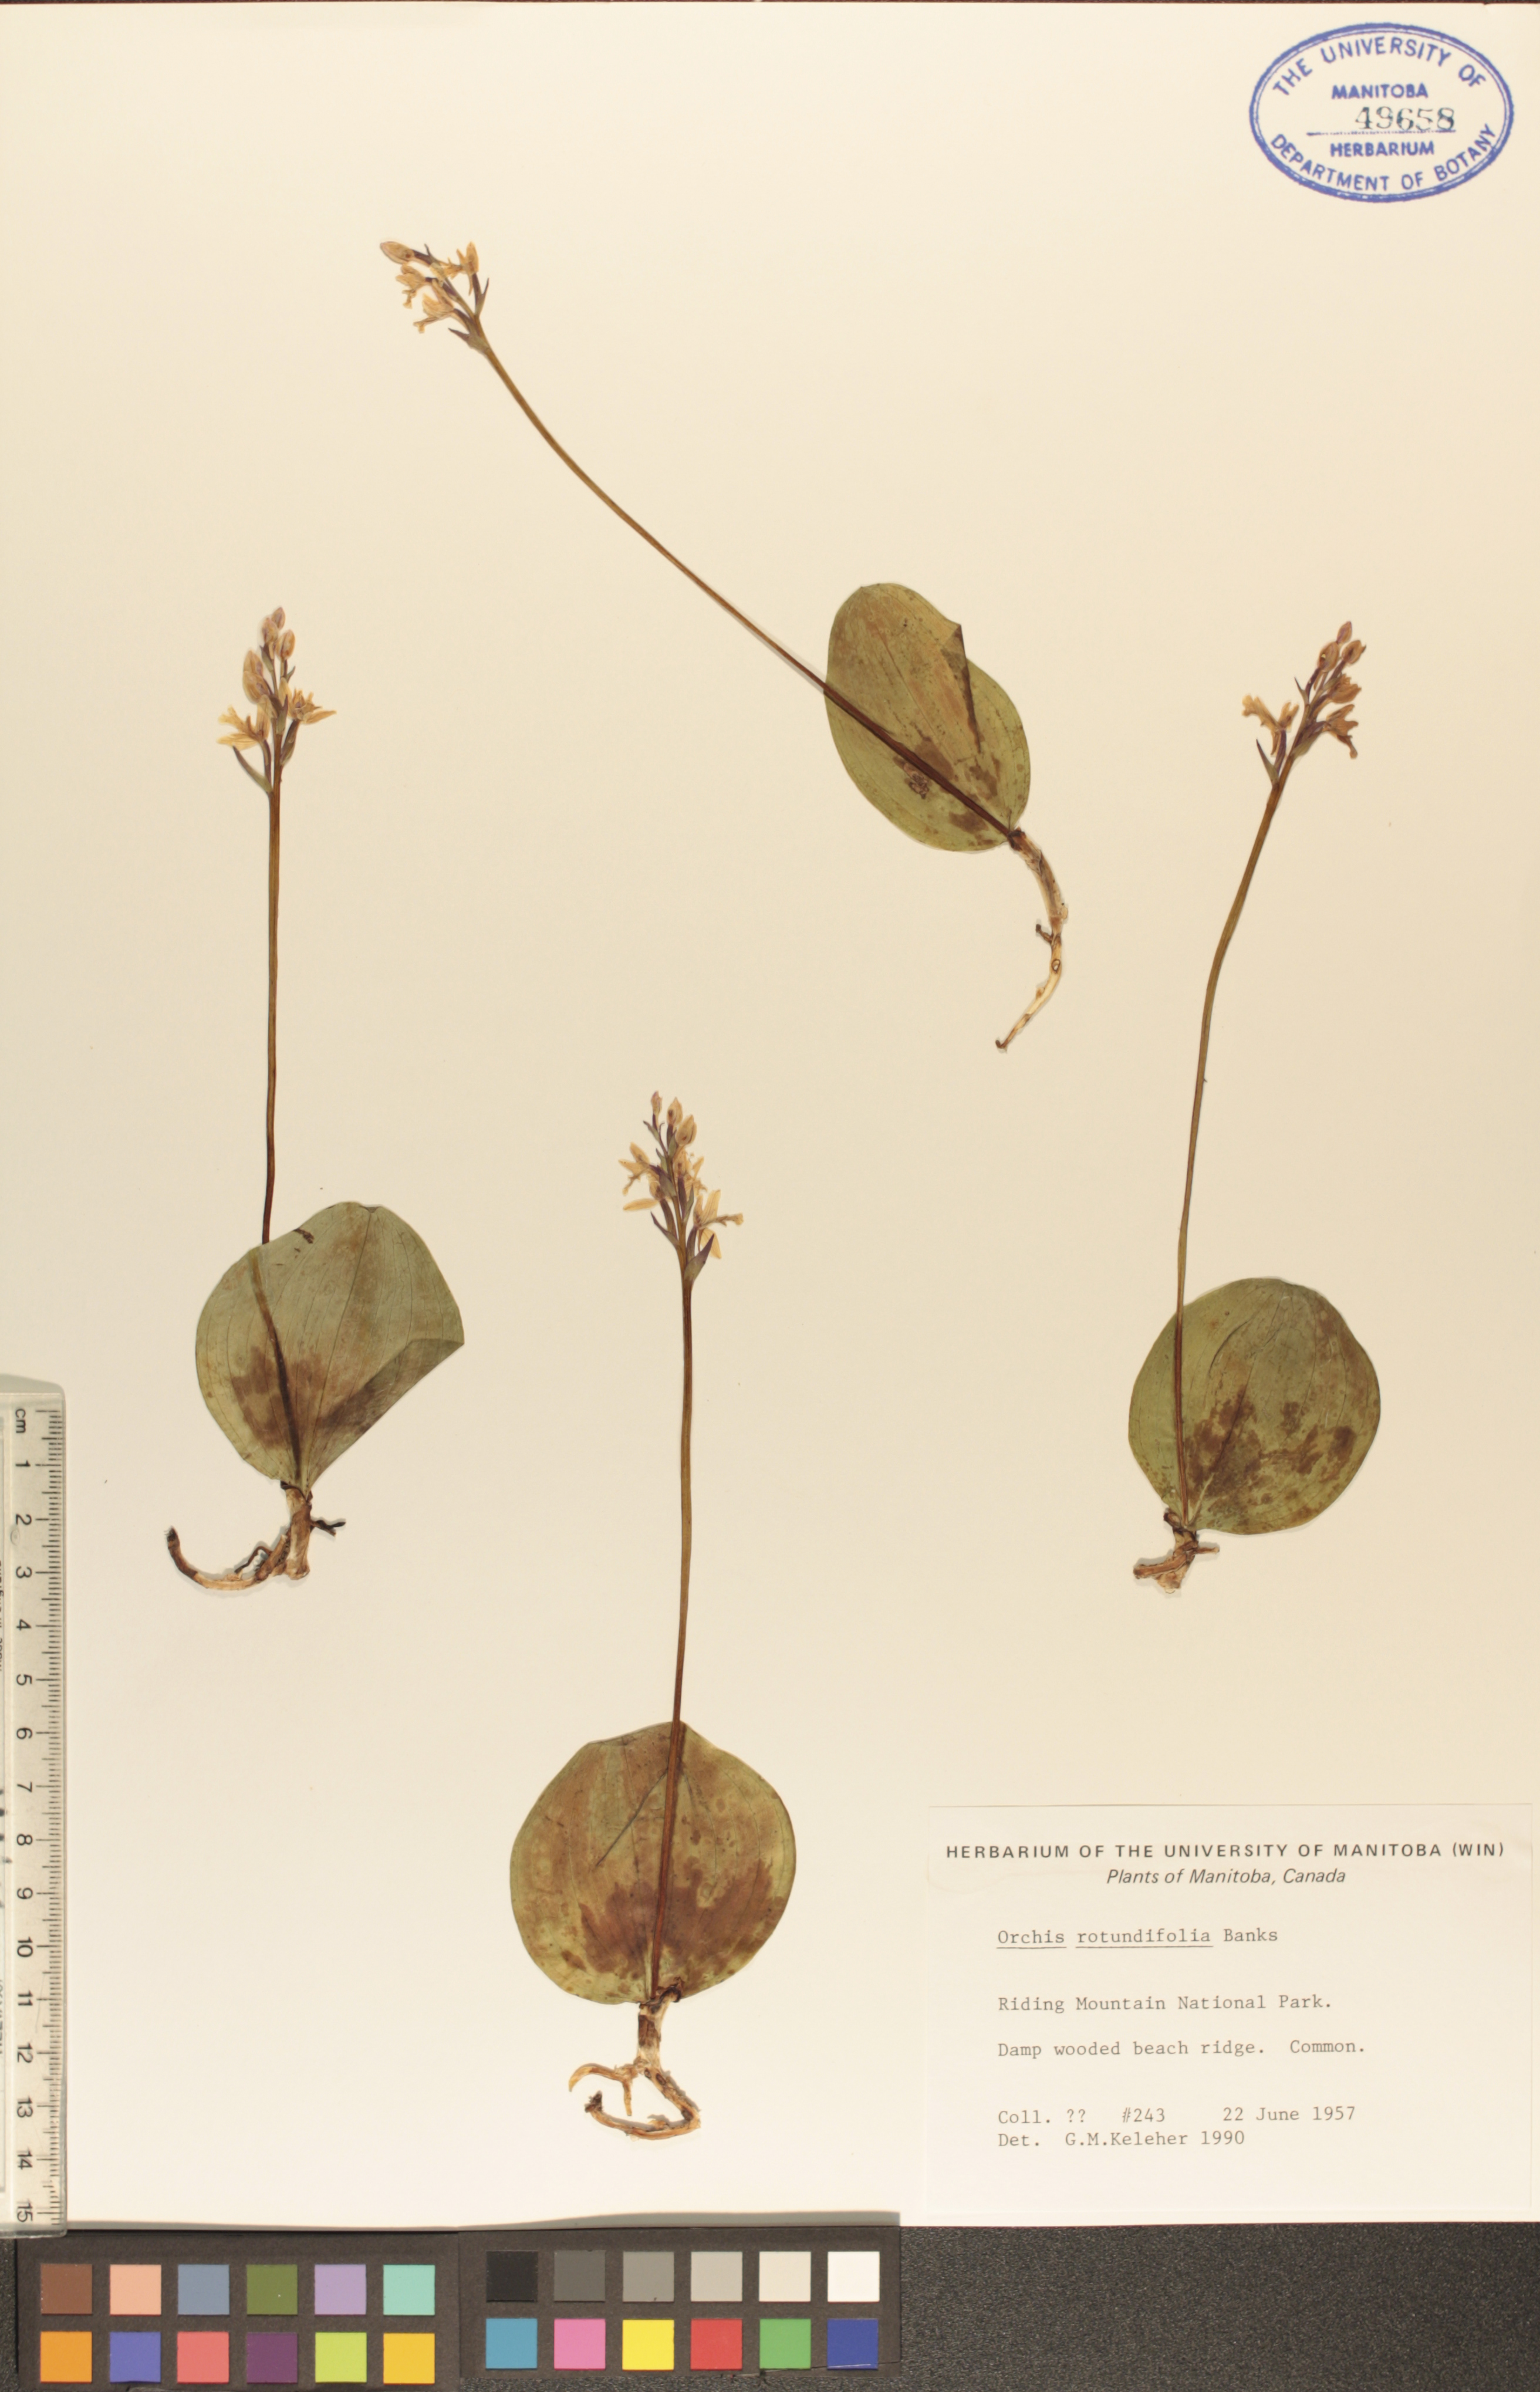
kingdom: Plantae
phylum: Tracheophyta
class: Liliopsida
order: Asparagales
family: Orchidaceae
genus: Galearis
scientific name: Galearis rotundifolia
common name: One-leaved orchis
